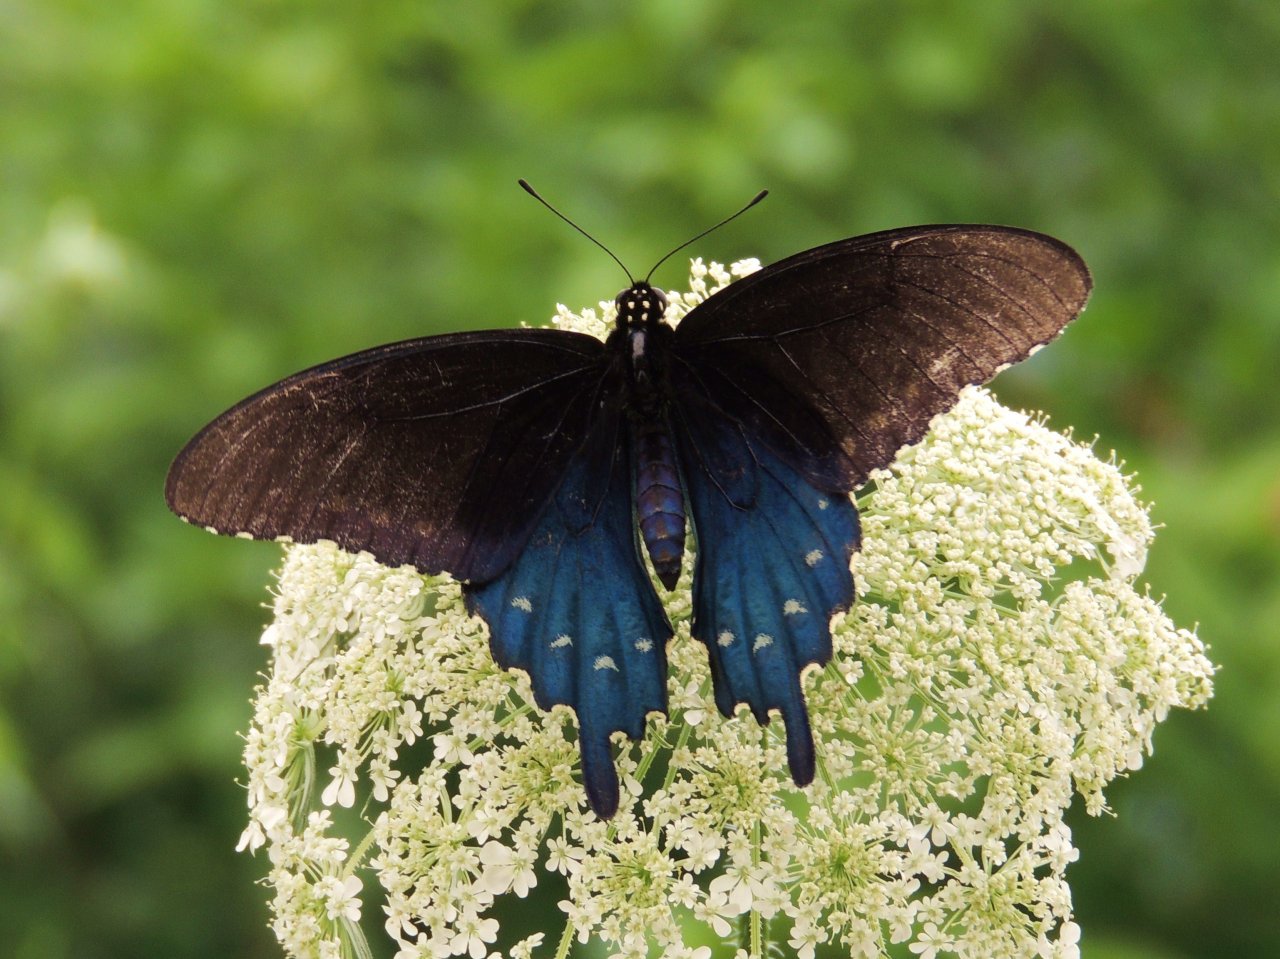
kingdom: Animalia
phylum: Arthropoda
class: Insecta
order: Lepidoptera
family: Papilionidae
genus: Battus
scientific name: Battus philenor
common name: Pipevine Swallowtail
